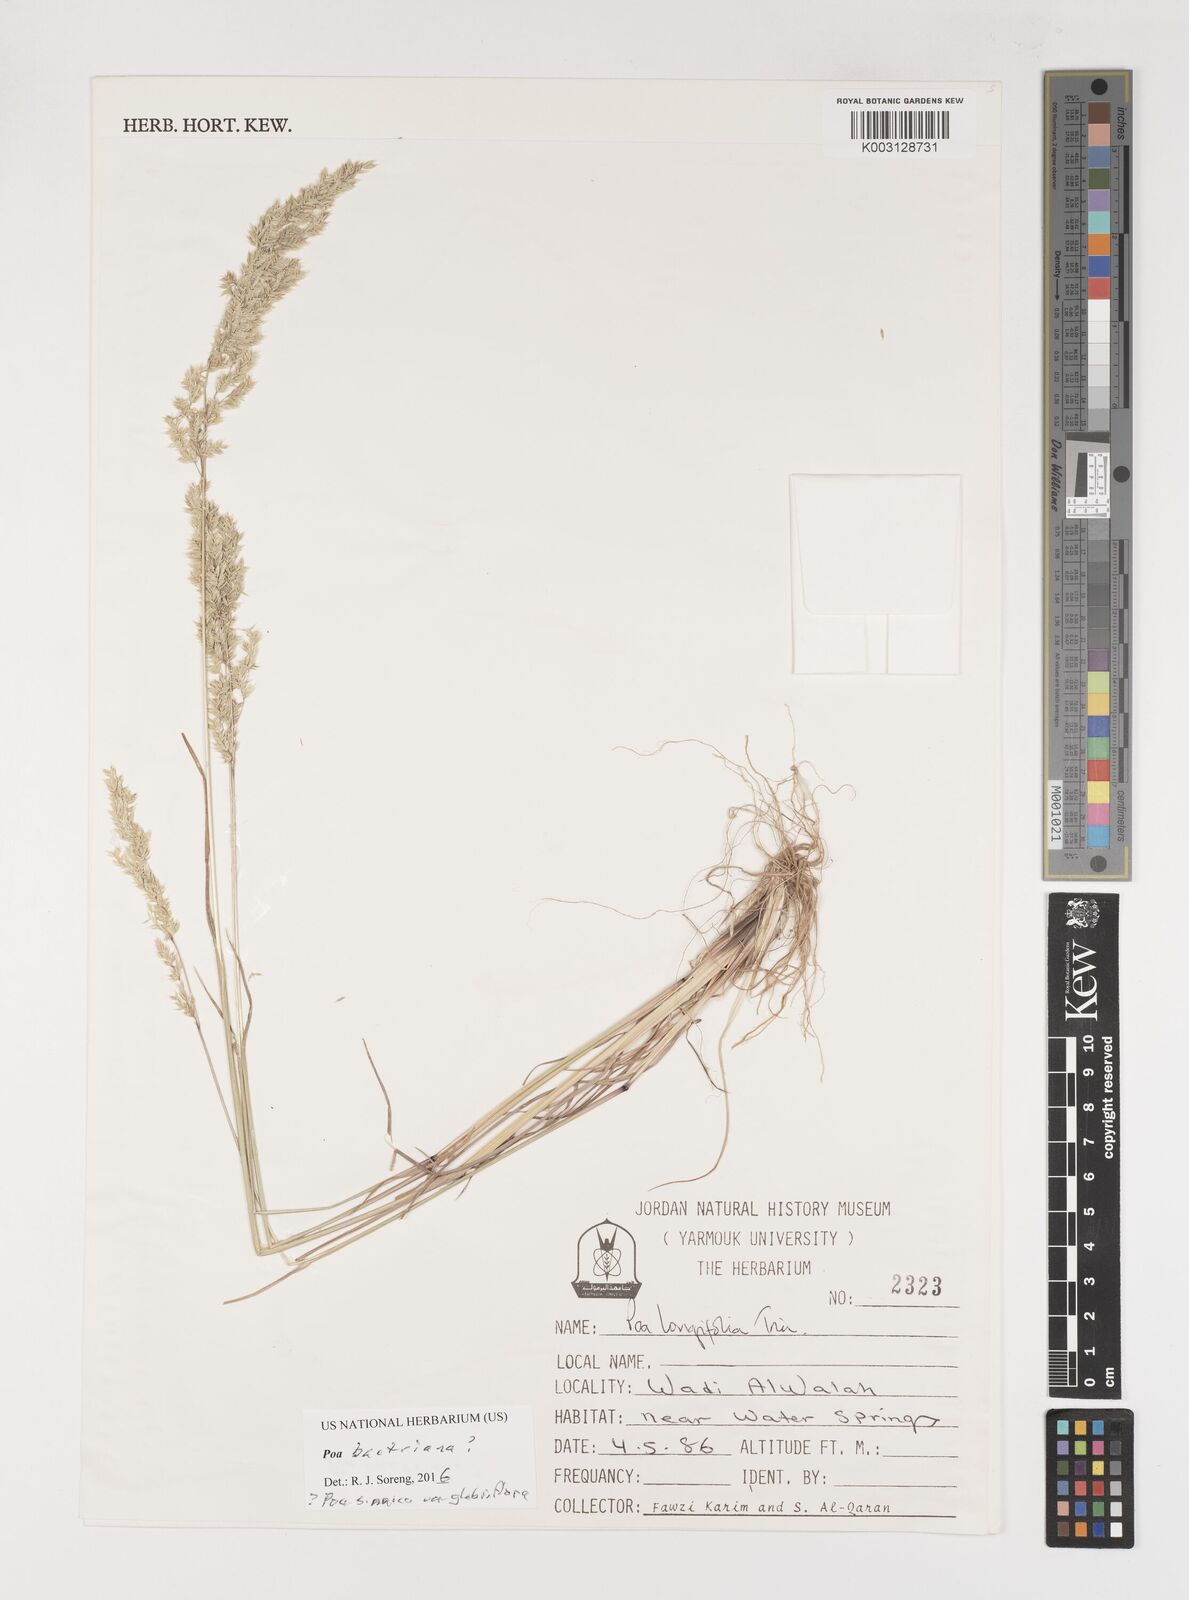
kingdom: Plantae
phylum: Tracheophyta
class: Liliopsida
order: Poales
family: Poaceae
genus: Poa
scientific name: Poa bactriana
